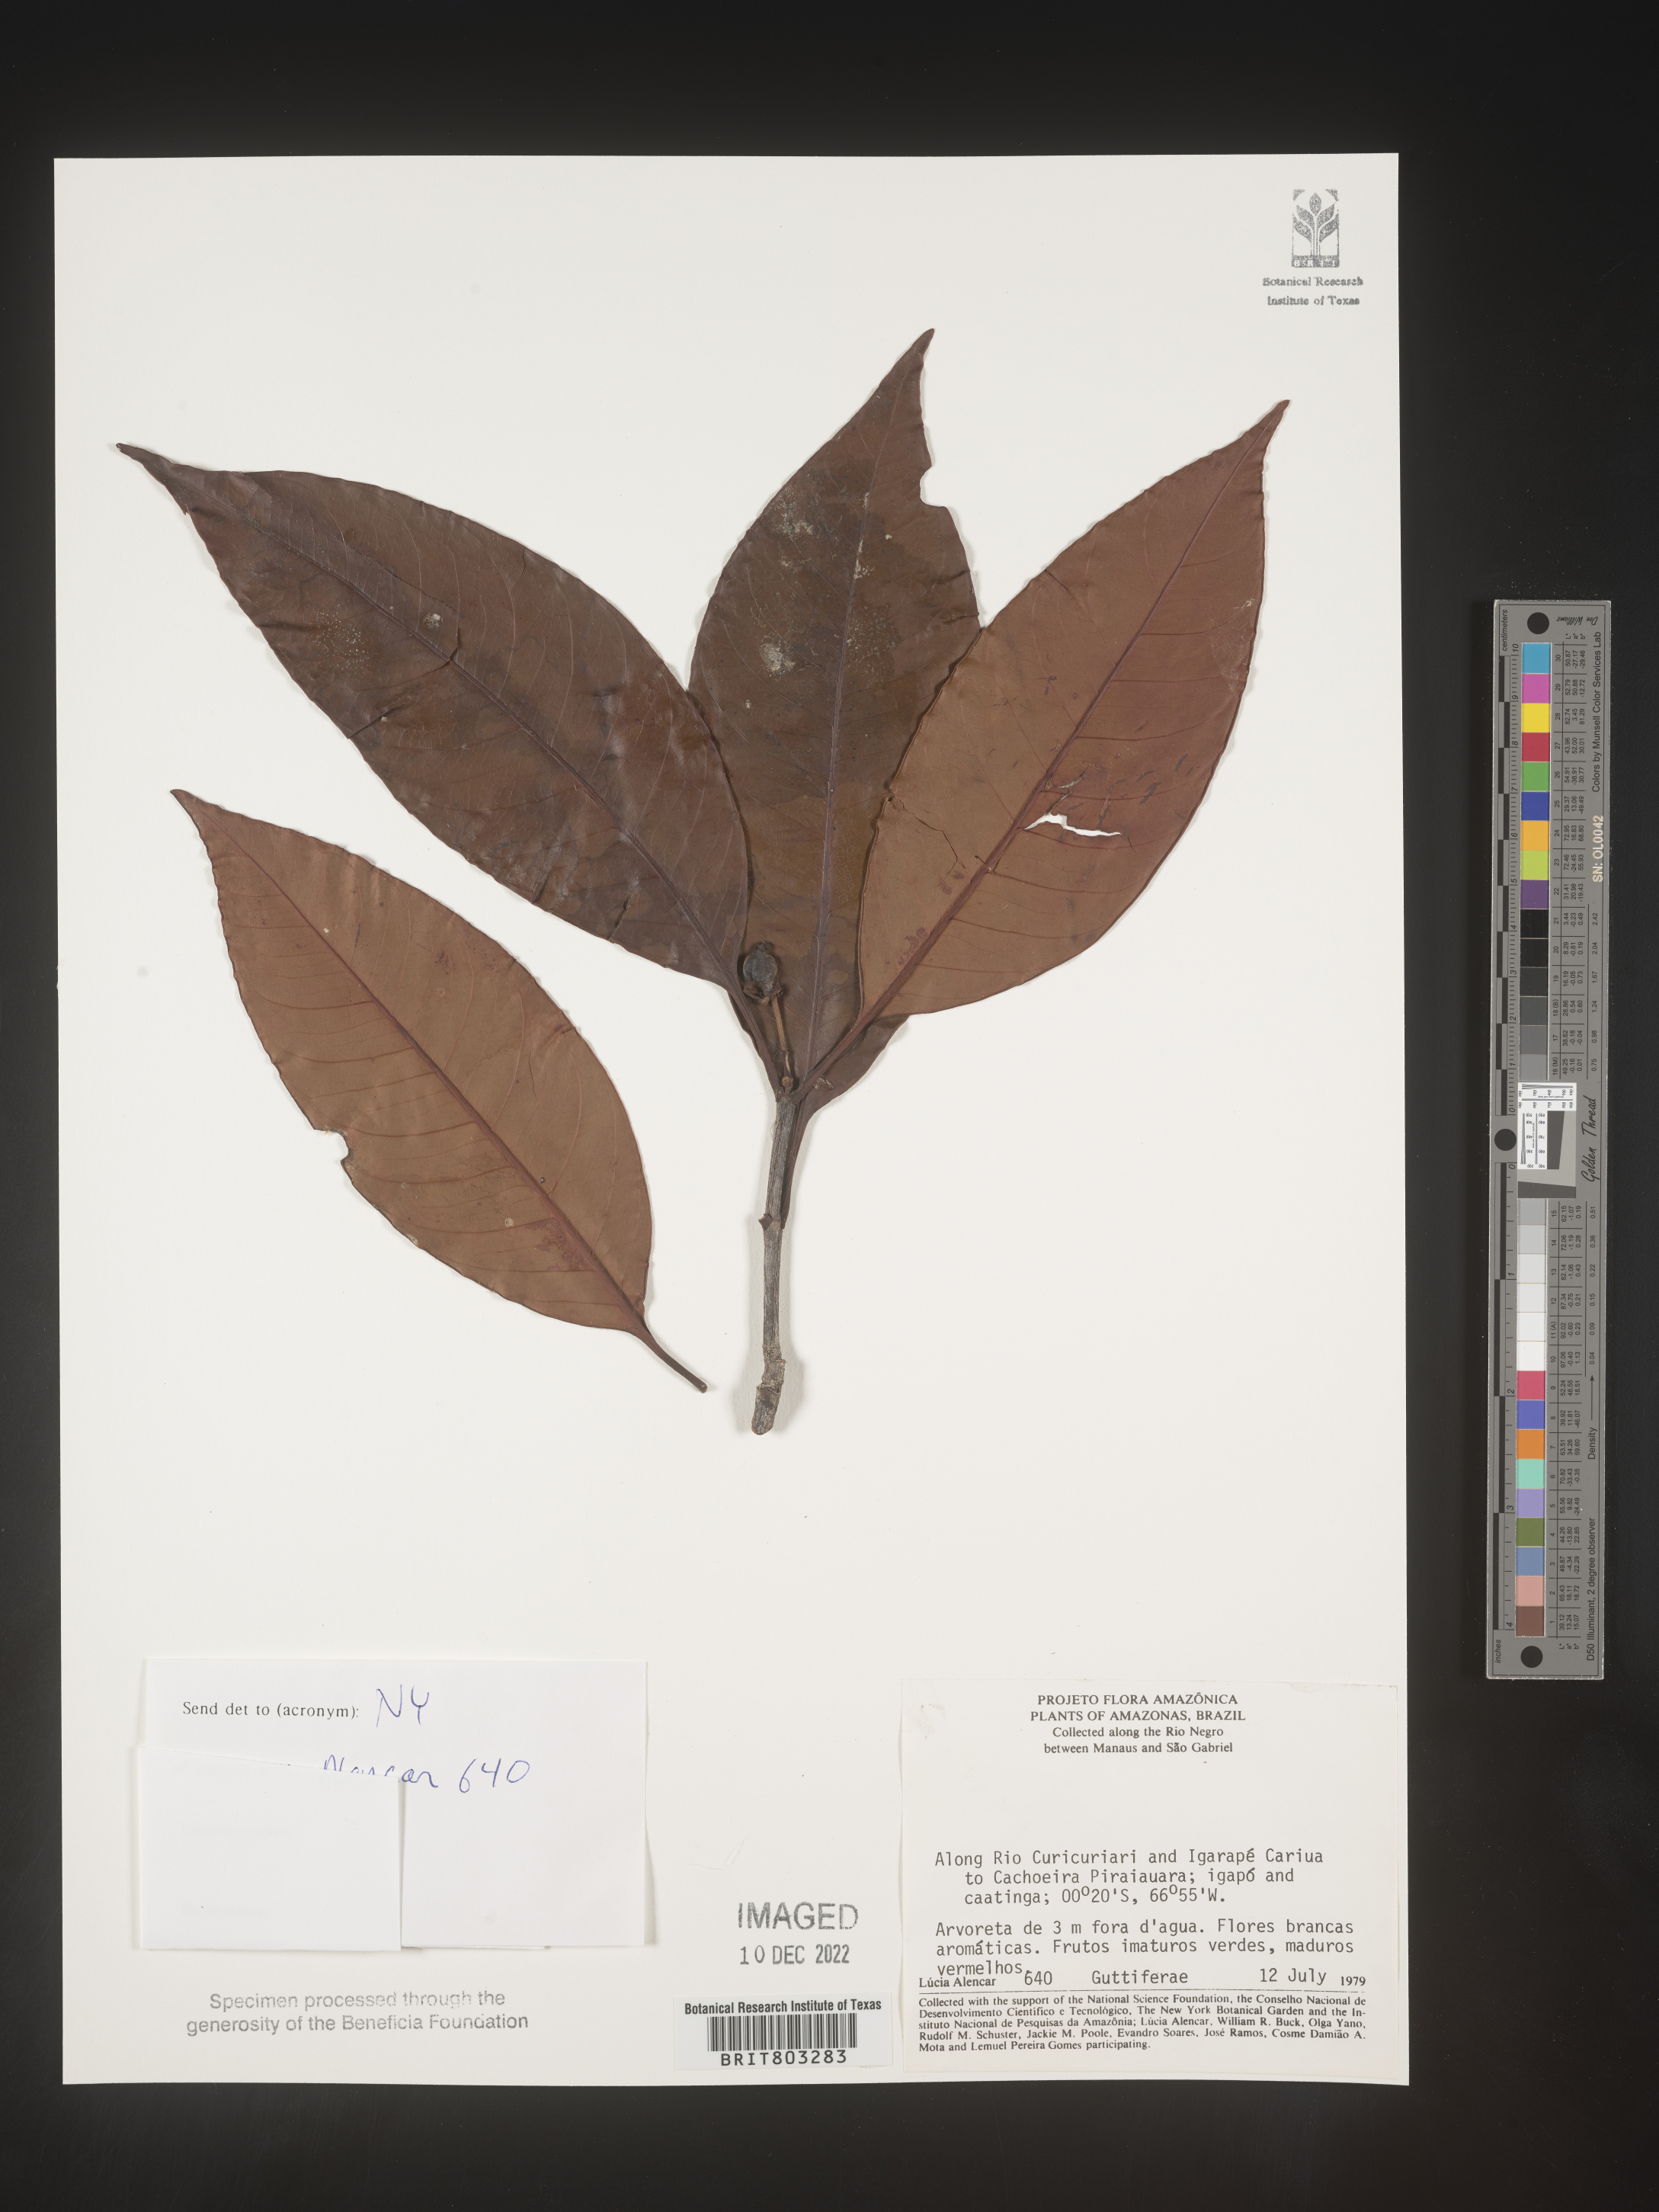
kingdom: Plantae
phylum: Tracheophyta
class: Magnoliopsida
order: Malpighiales
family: Clusiaceae
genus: Tovomita
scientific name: Tovomita
